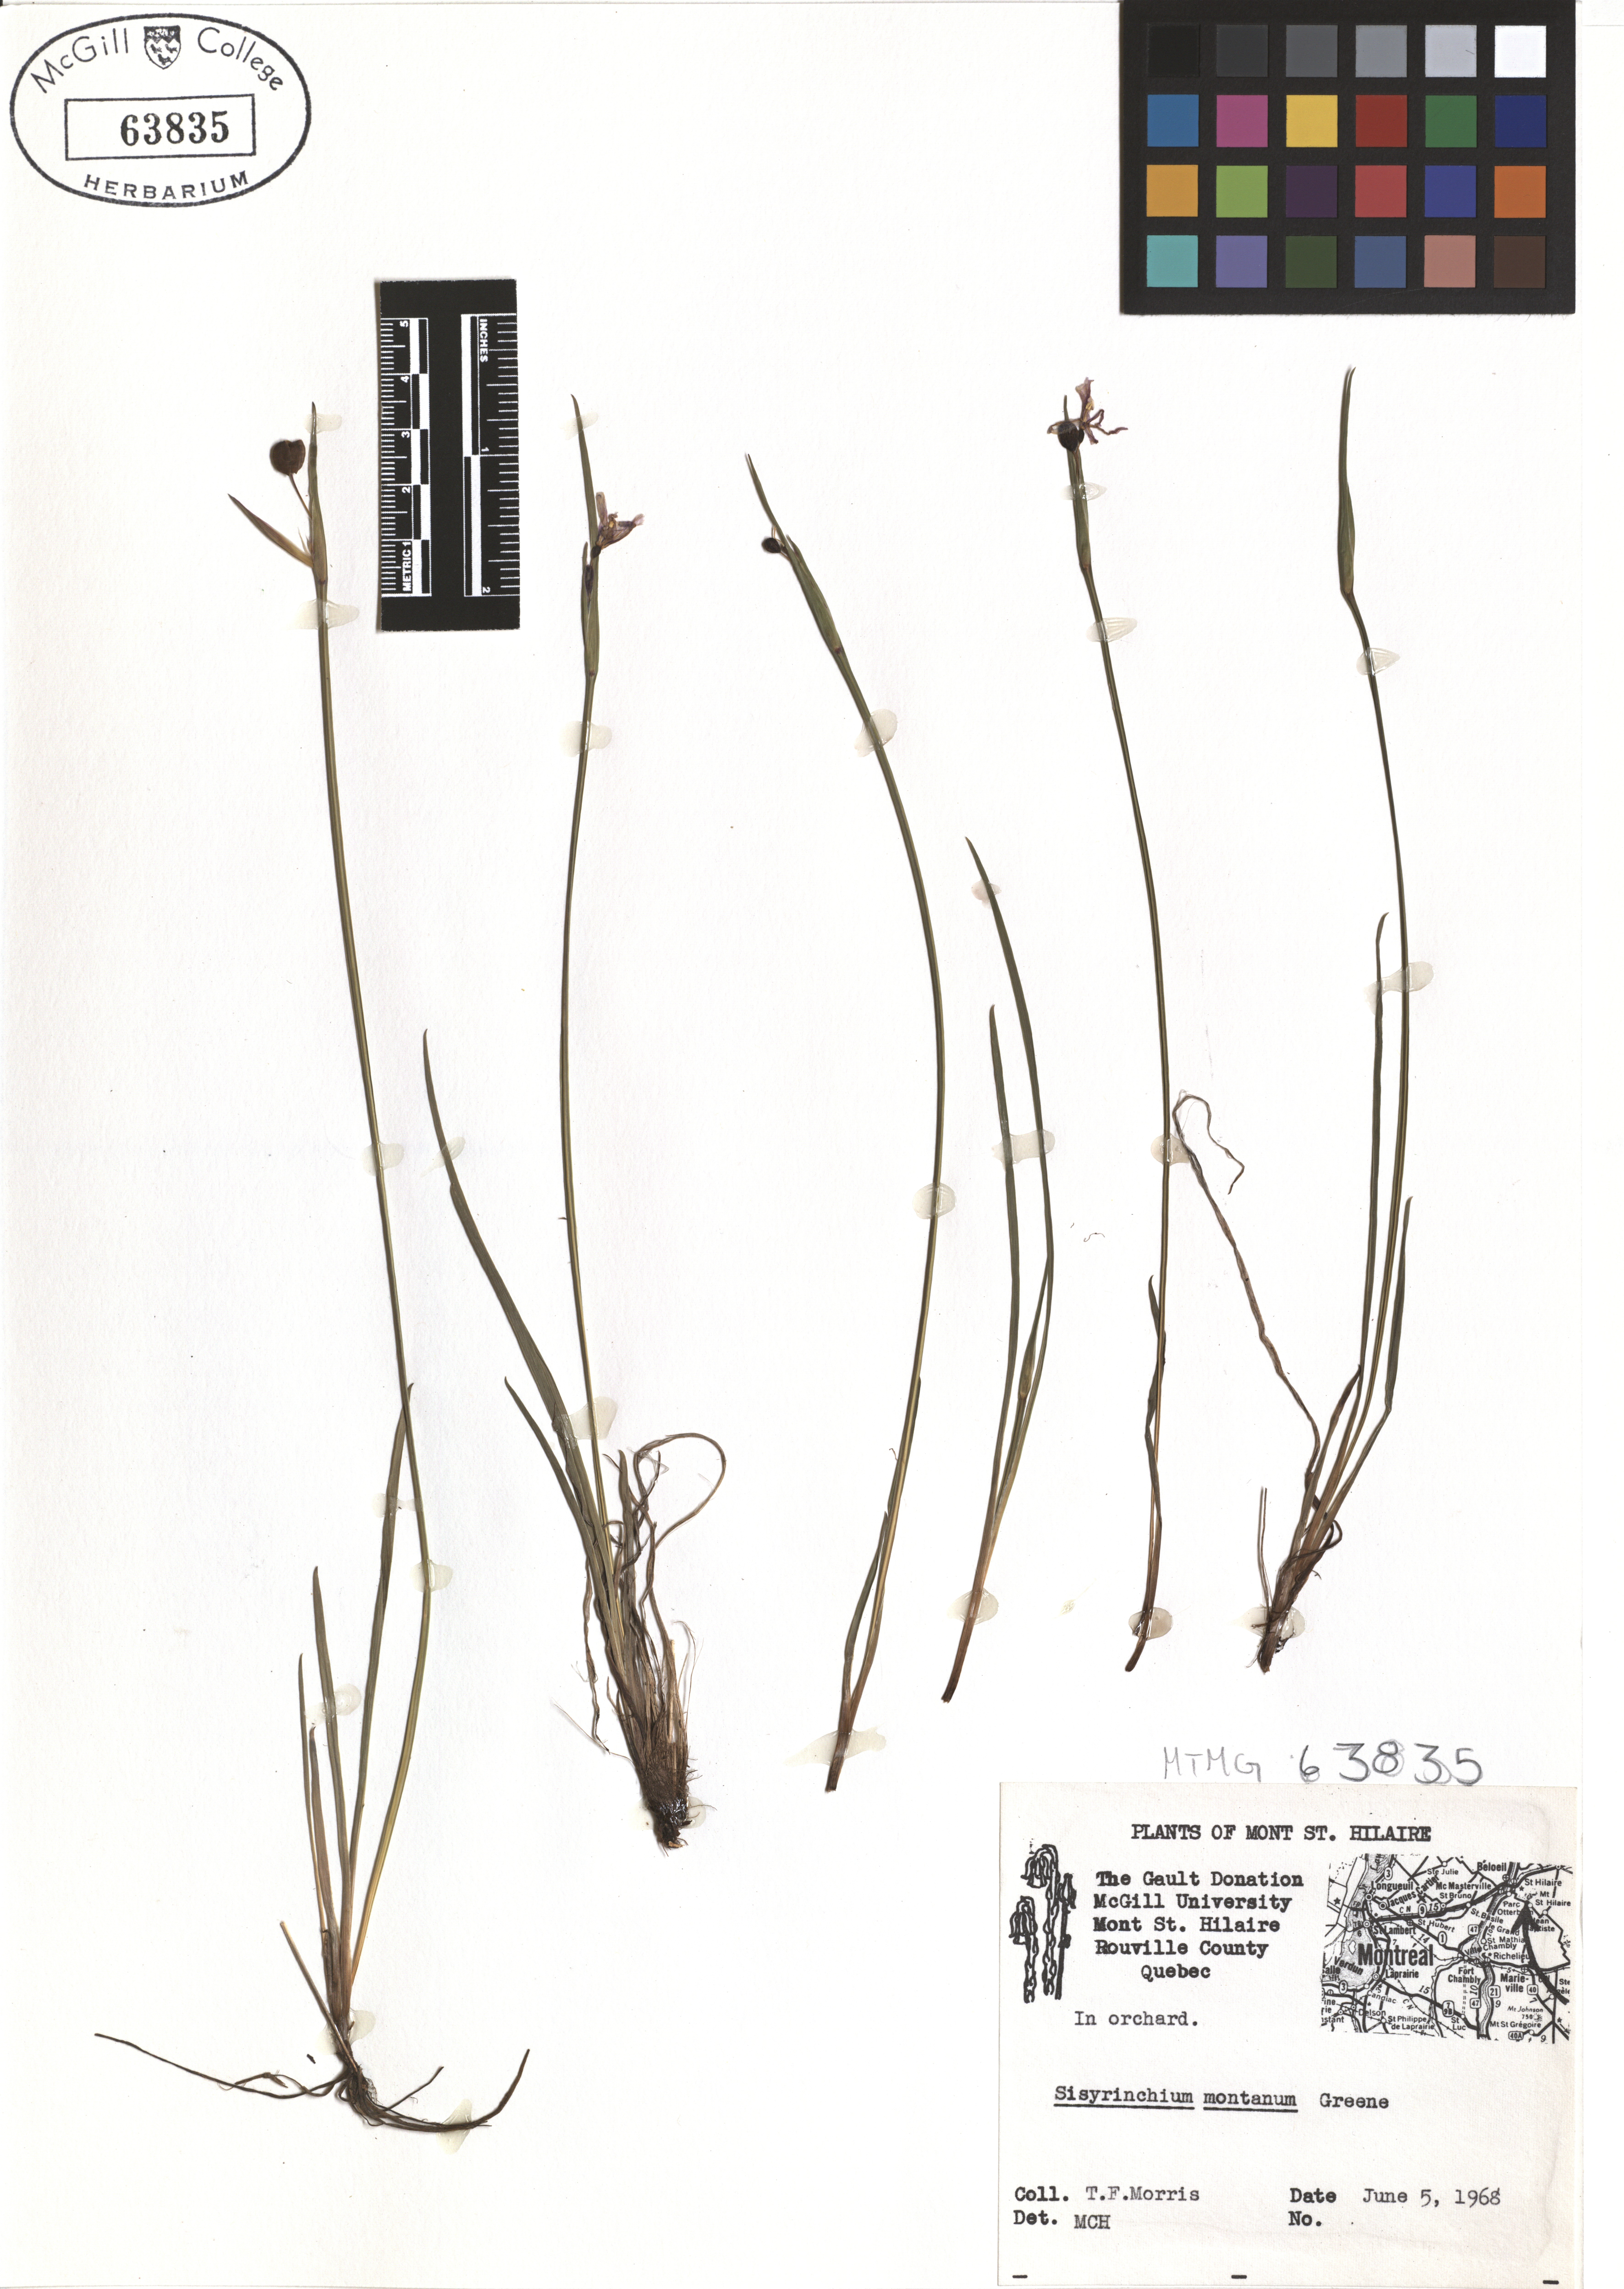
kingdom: Plantae
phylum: Tracheophyta
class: Liliopsida
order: Asparagales
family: Iridaceae
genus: Sisyrinchium
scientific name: Sisyrinchium montanum
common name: American blue-eyed-grass
